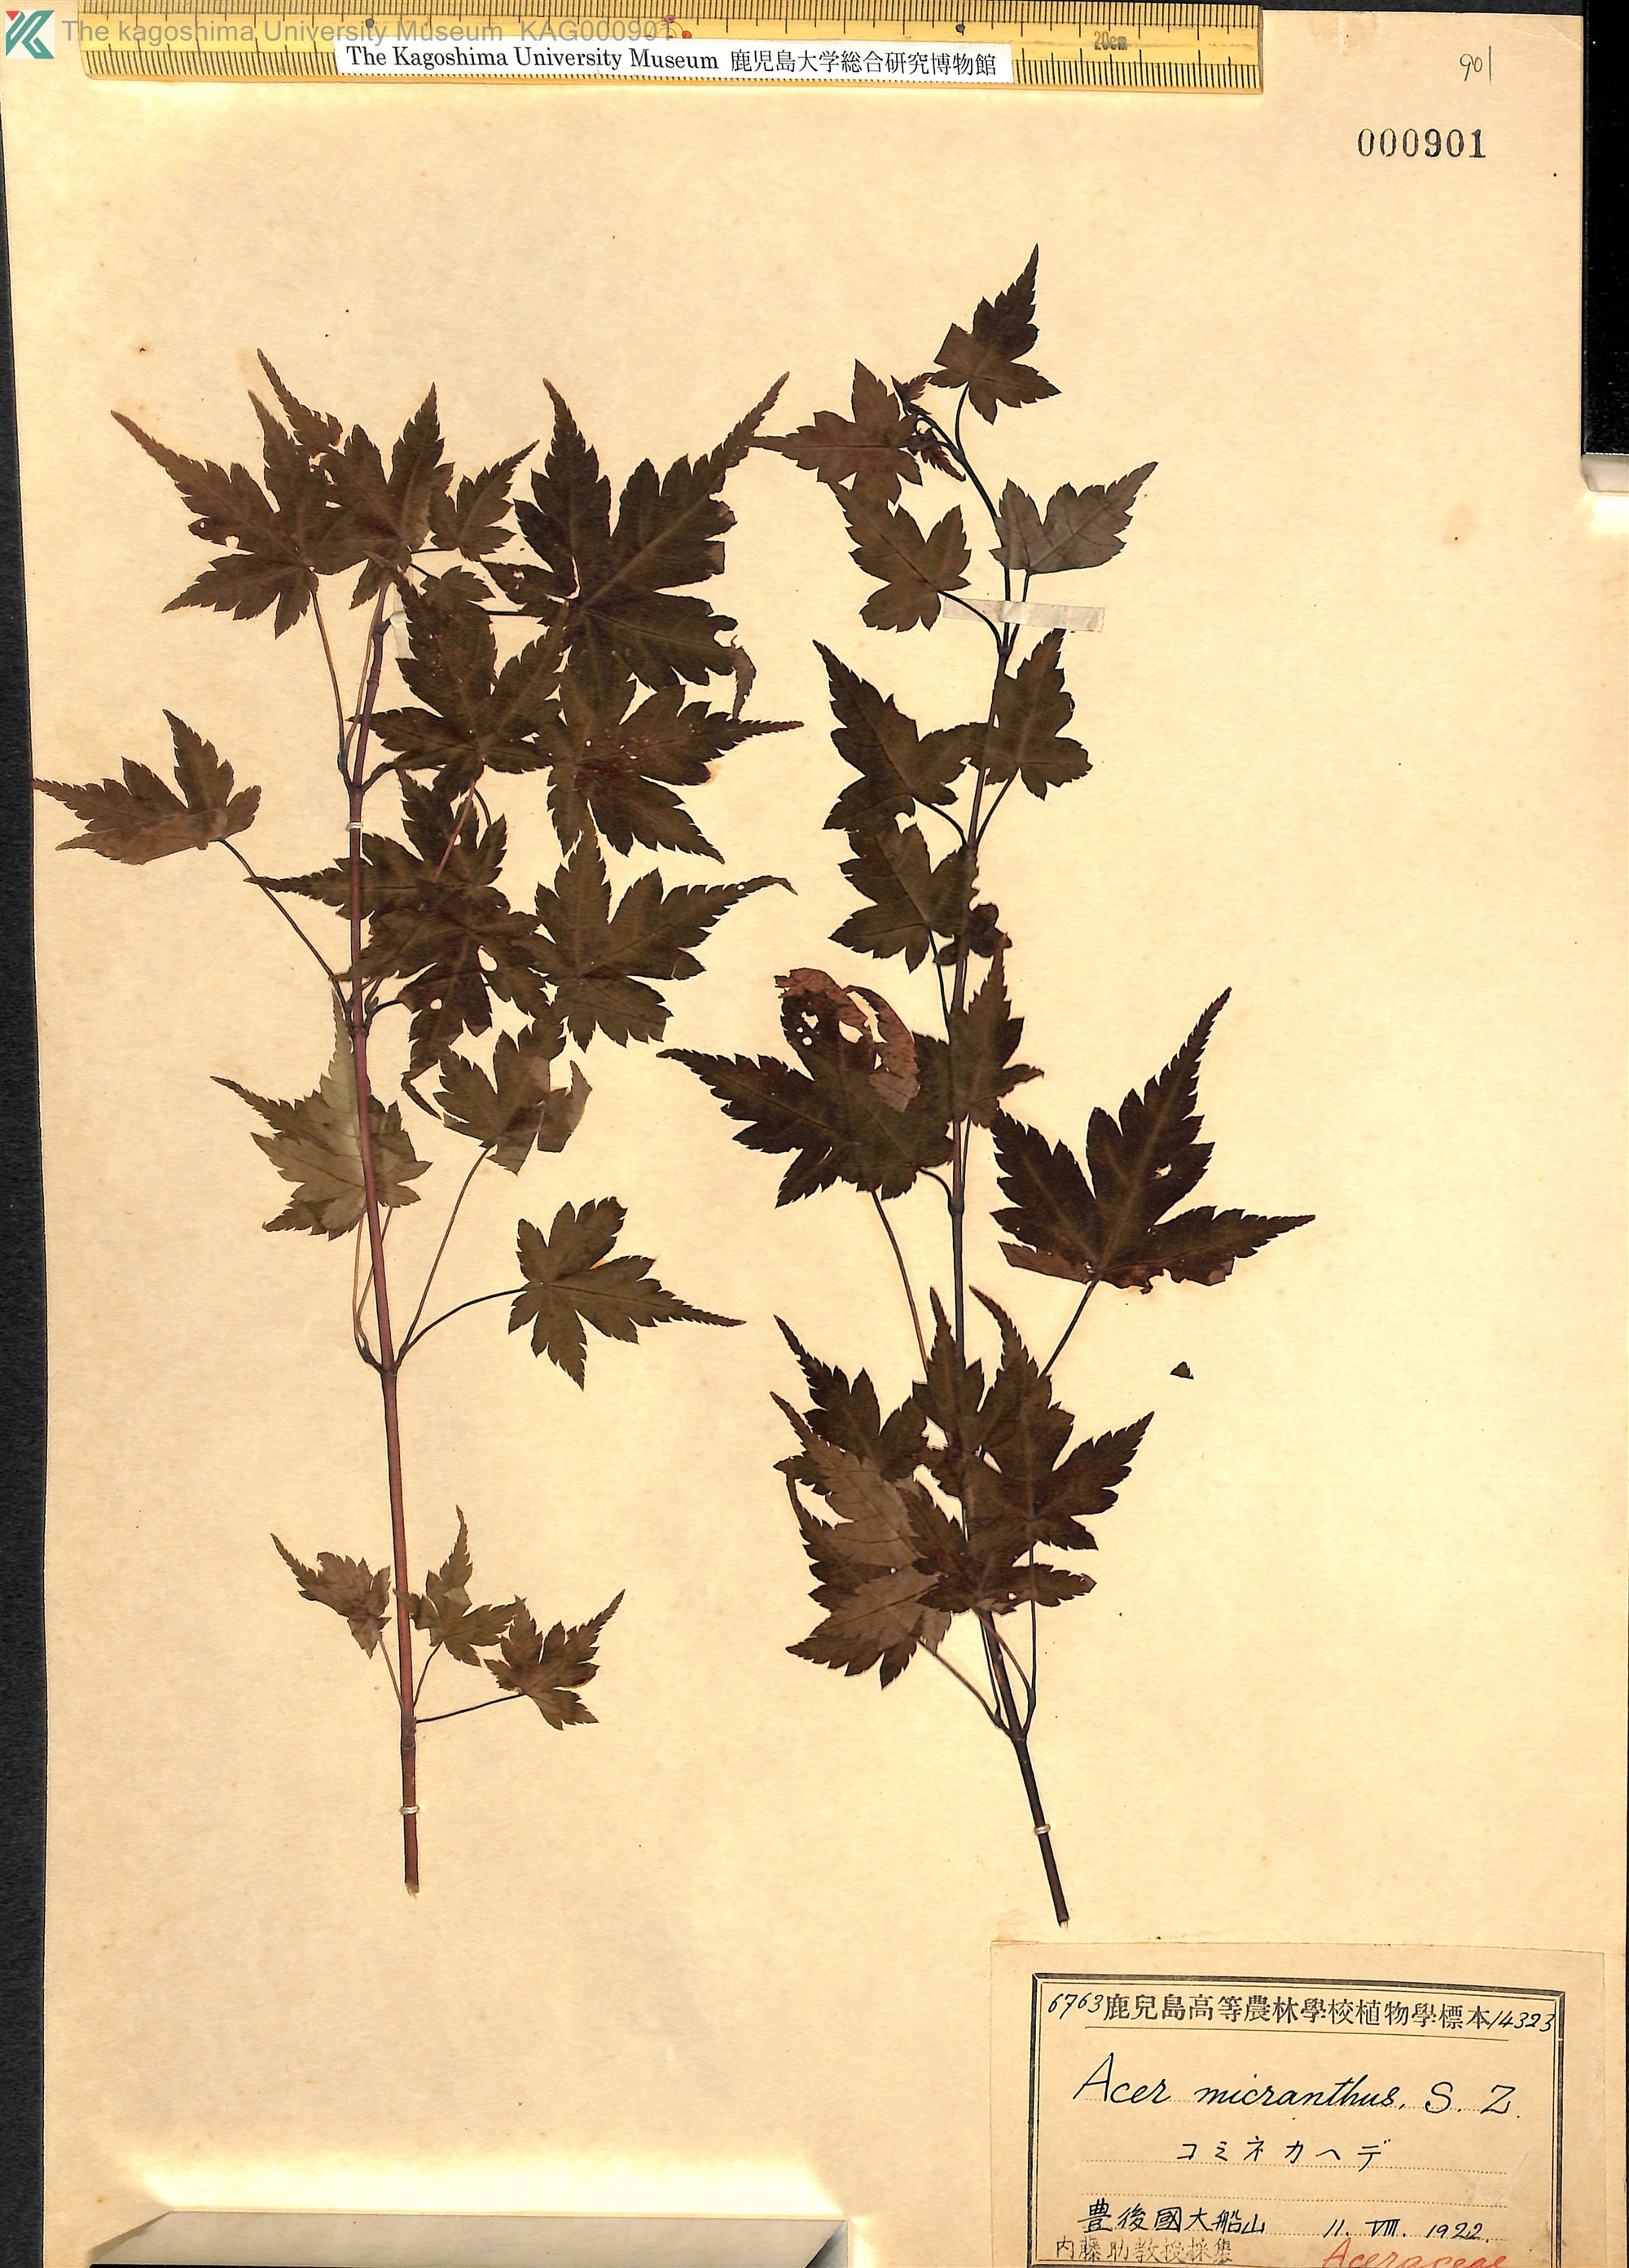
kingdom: Plantae
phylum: Tracheophyta
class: Magnoliopsida
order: Sapindales
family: Sapindaceae
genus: Acer
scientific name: Acer micranthum
